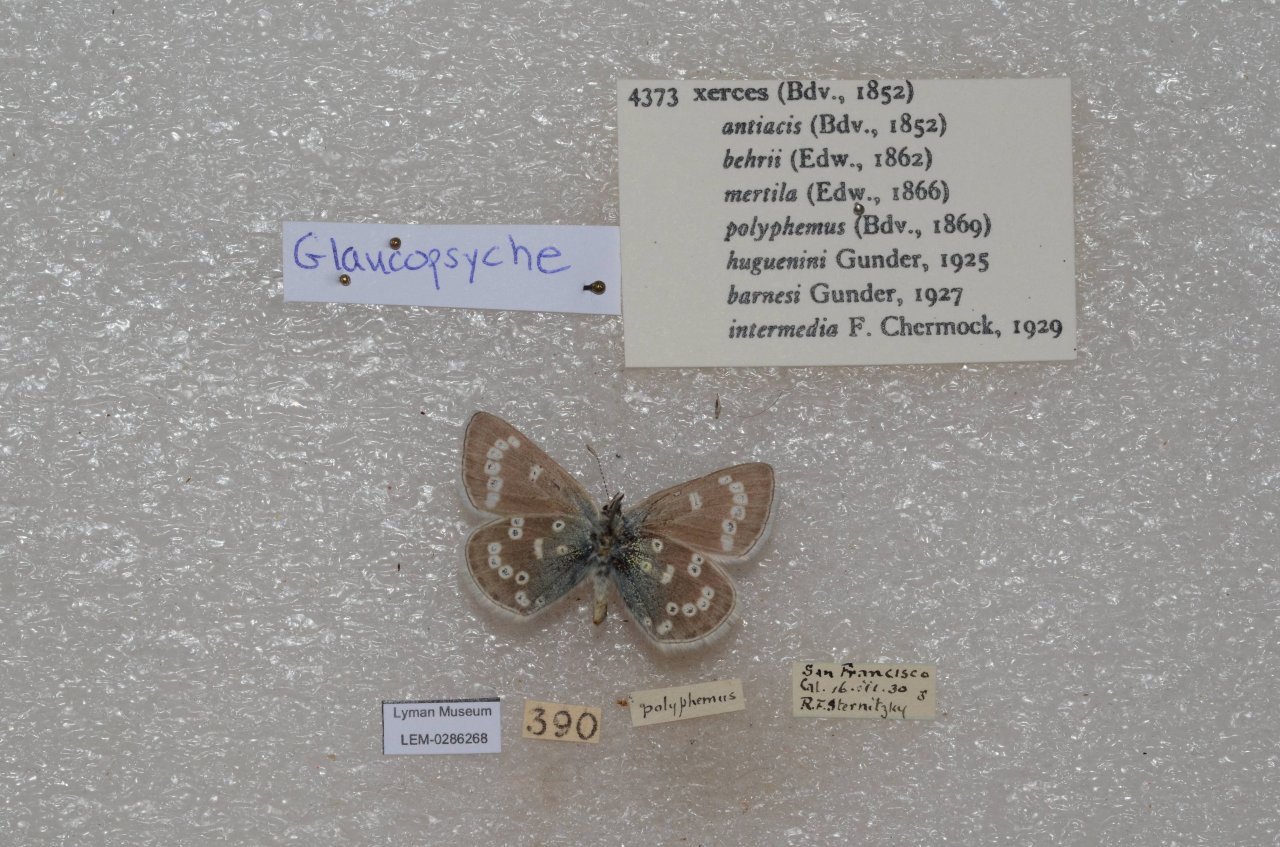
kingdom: Animalia
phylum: Arthropoda
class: Insecta
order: Lepidoptera
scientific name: Lepidoptera
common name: Butterflies
